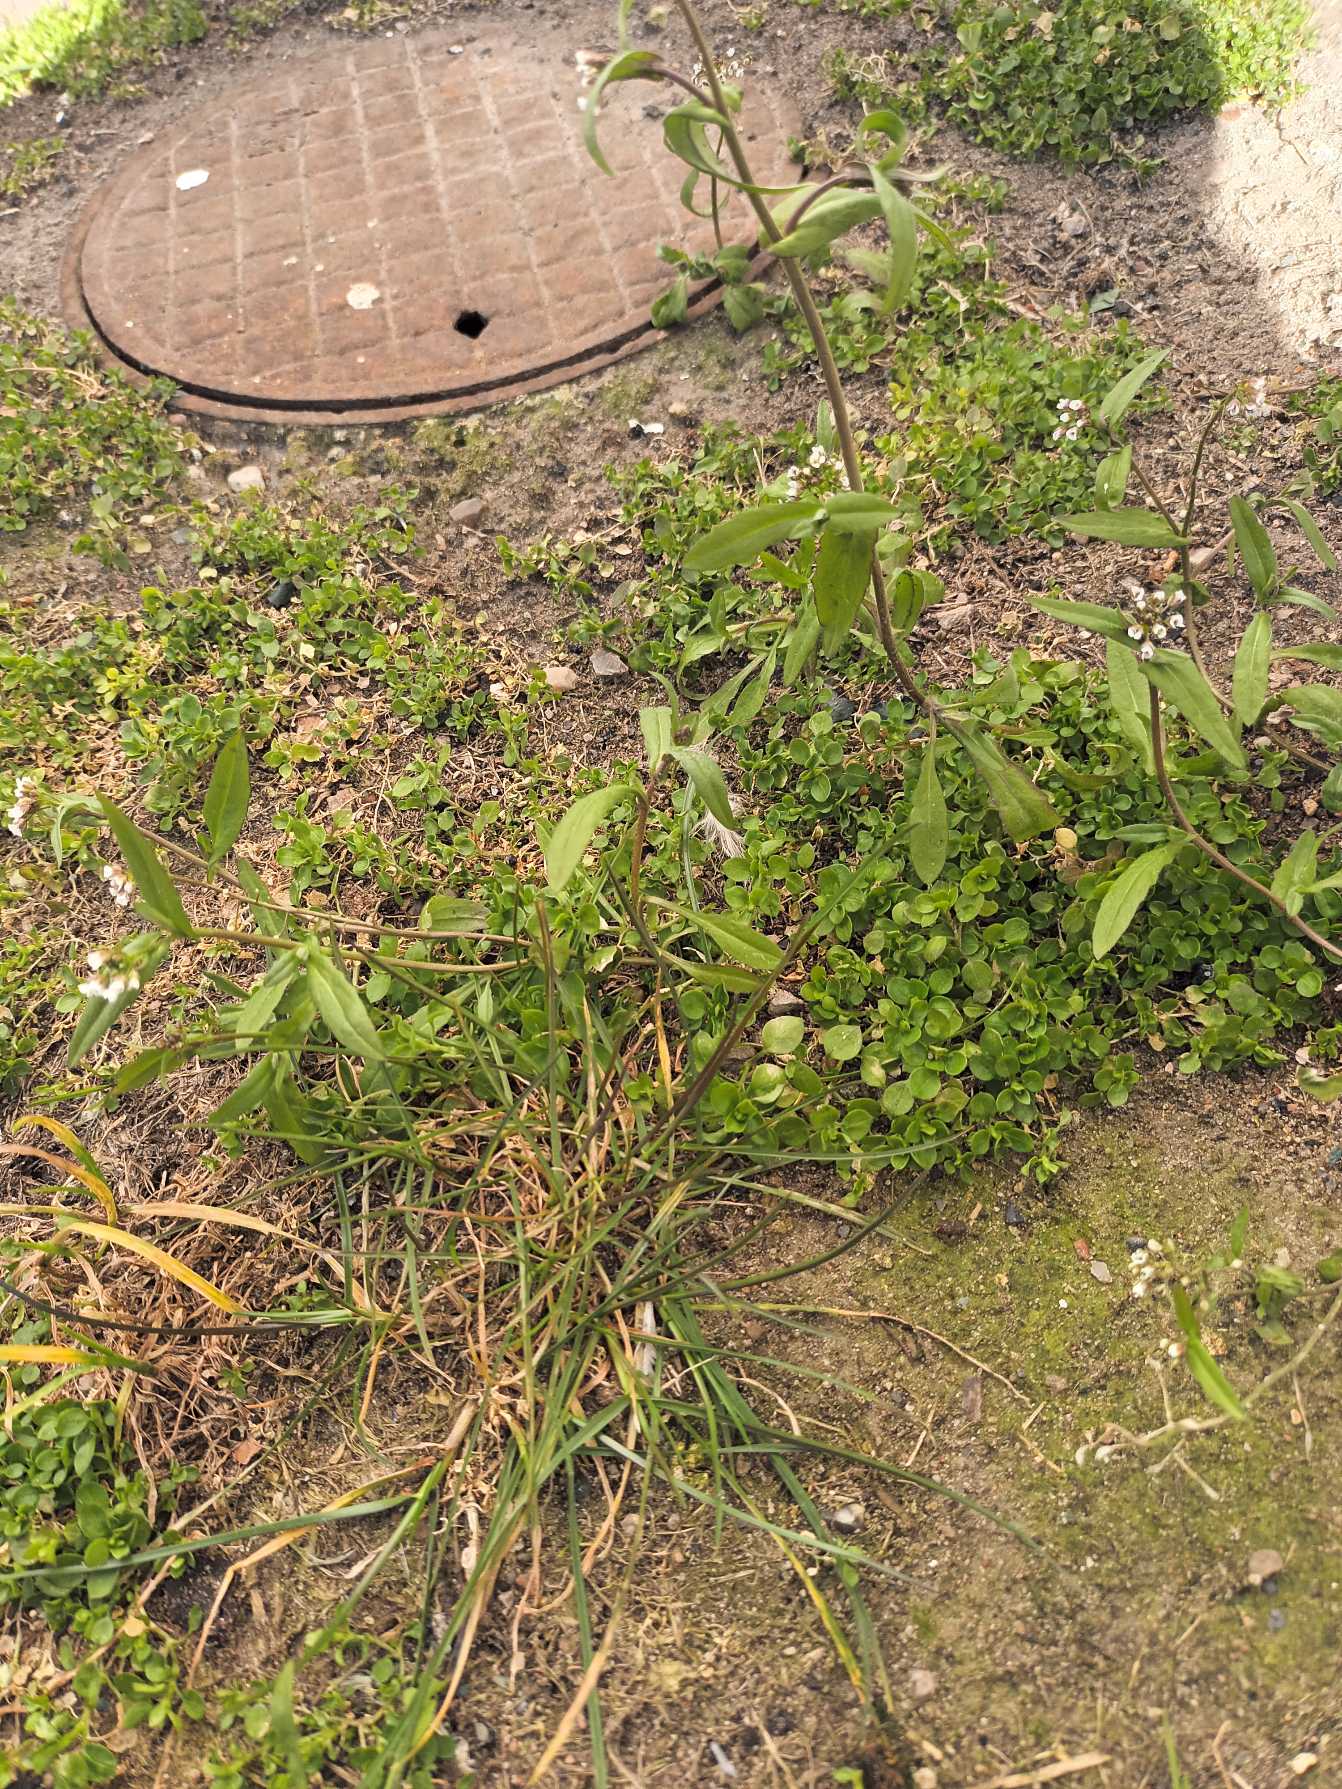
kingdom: Plantae
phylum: Tracheophyta
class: Magnoliopsida
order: Brassicales
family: Brassicaceae
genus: Capsella
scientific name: Capsella bursa-pastoris
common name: Hyrdetaske
